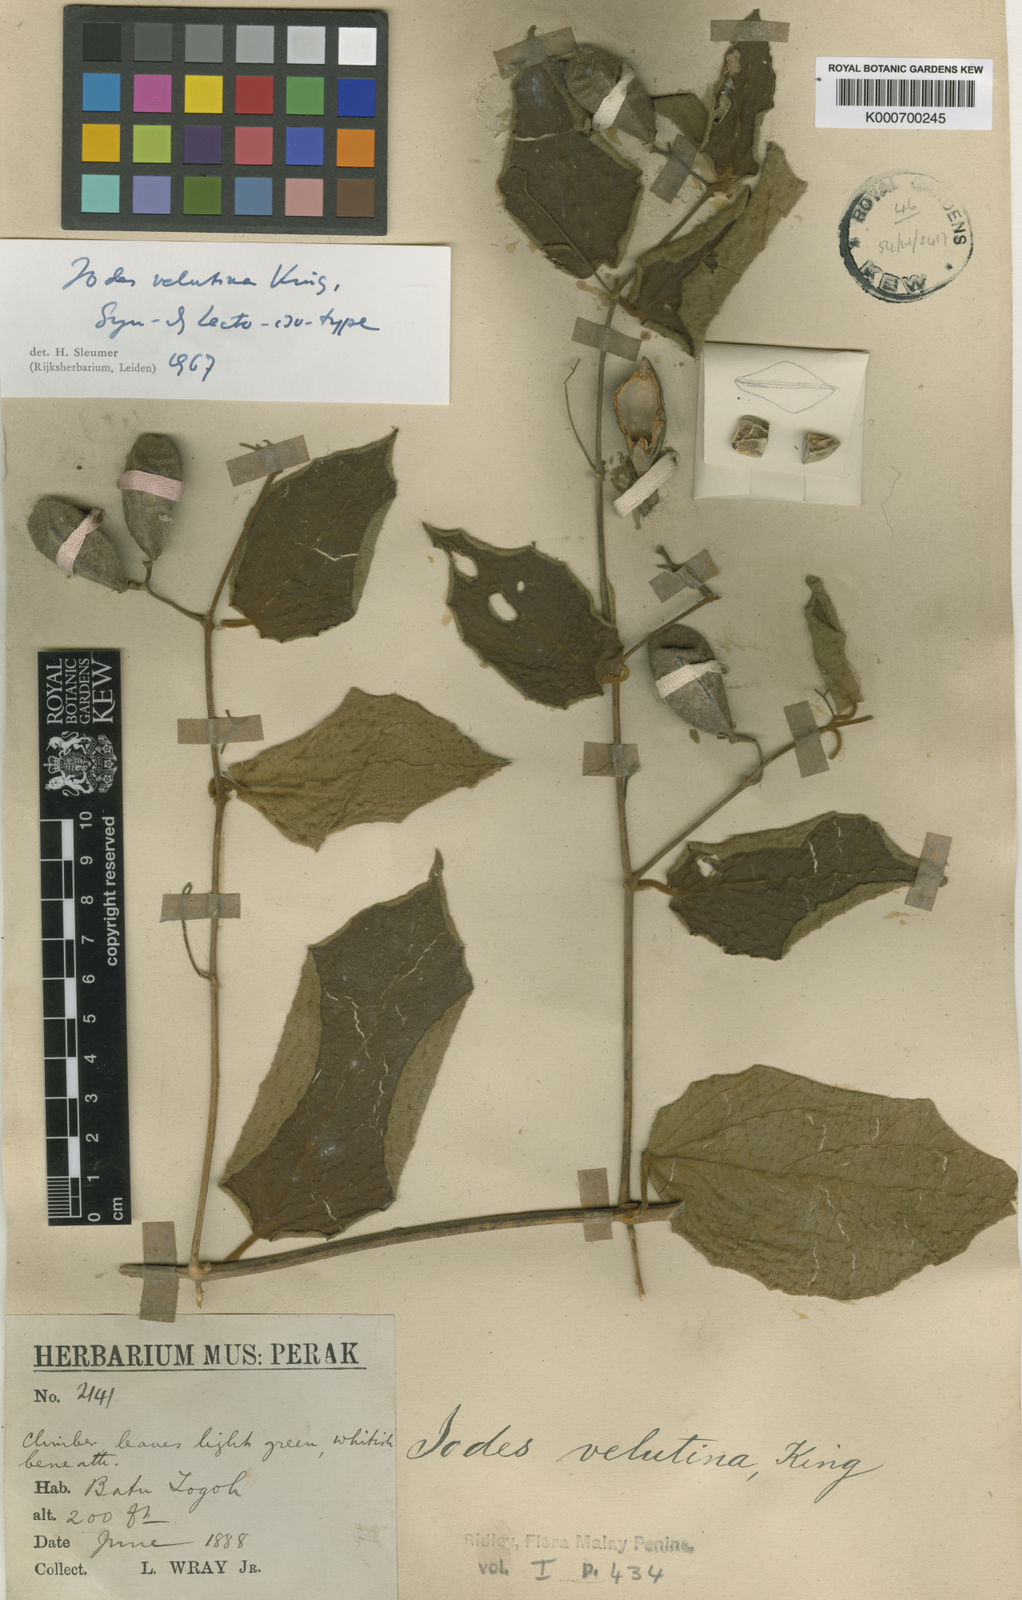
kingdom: Plantae
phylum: Tracheophyta
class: Magnoliopsida
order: Icacinales
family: Icacinaceae
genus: Iodes
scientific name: Iodes velutina
